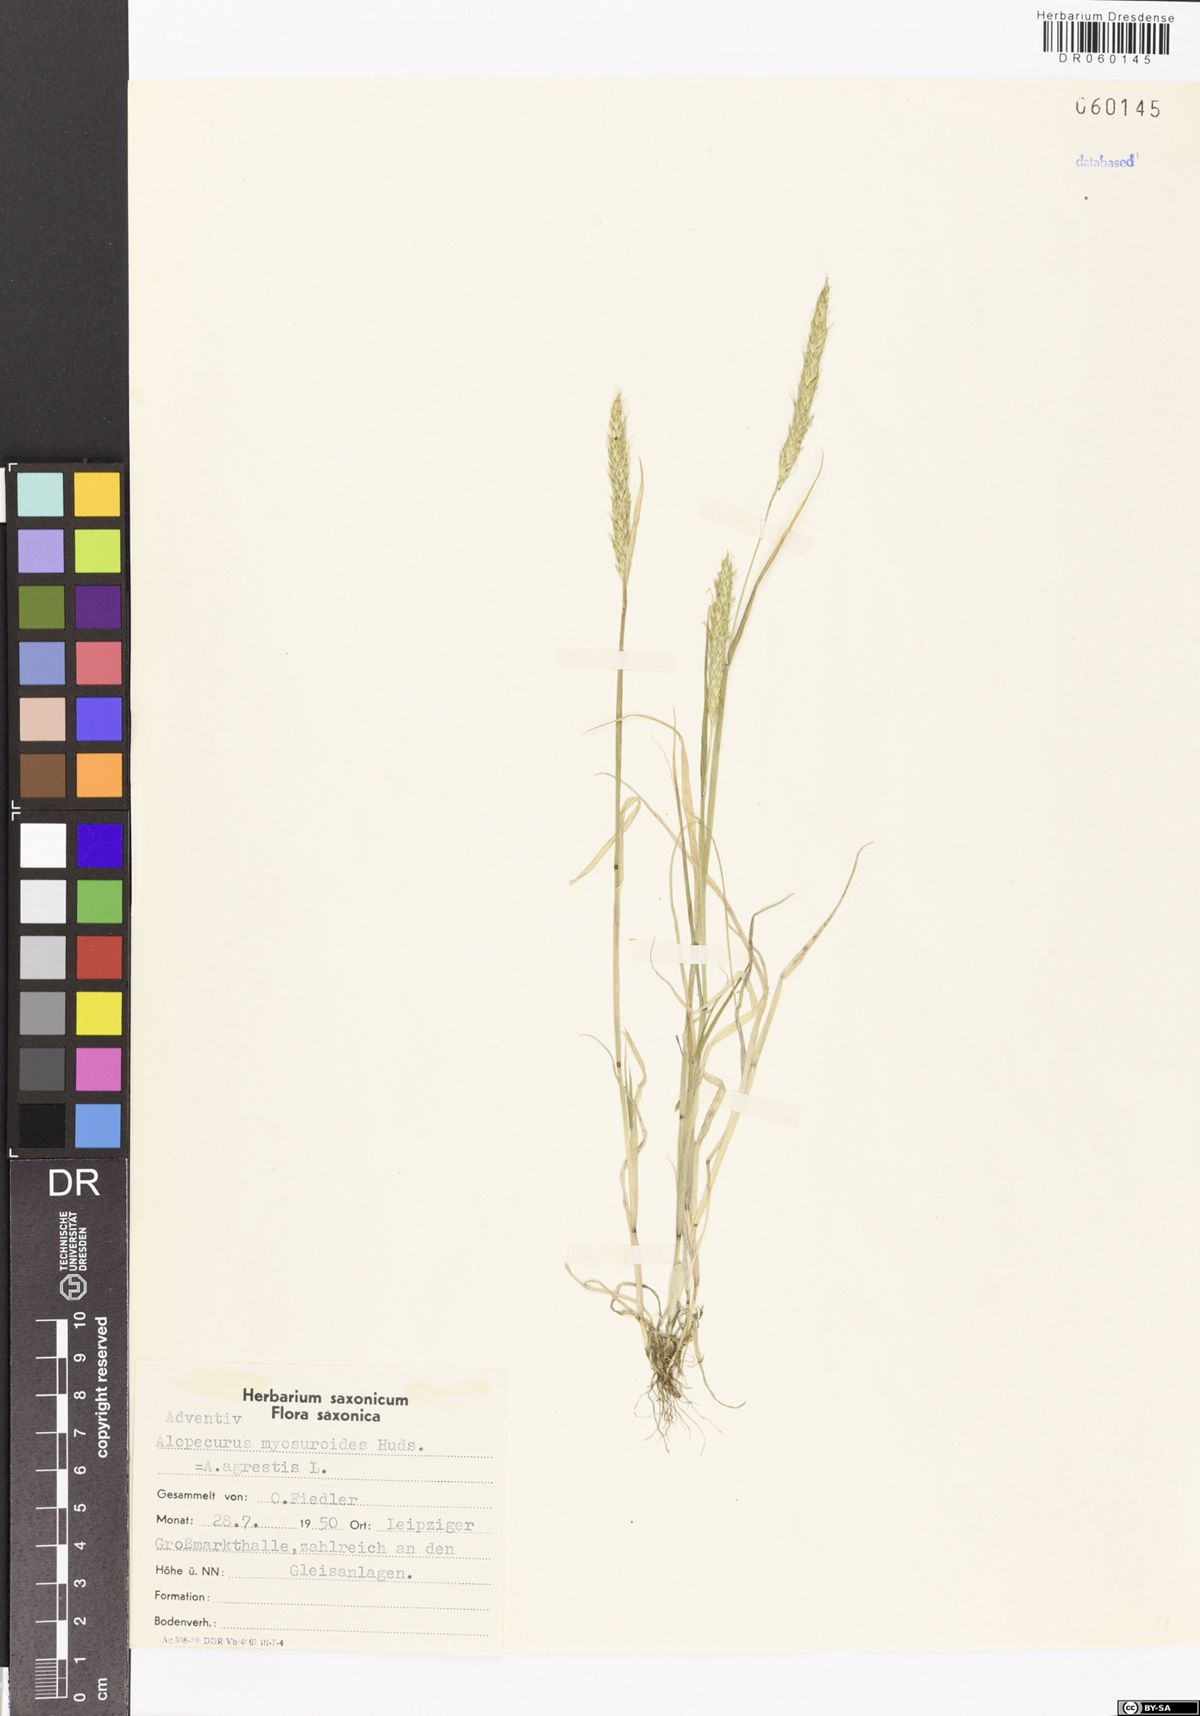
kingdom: Plantae
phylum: Tracheophyta
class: Liliopsida
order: Poales
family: Poaceae
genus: Alopecurus
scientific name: Alopecurus myosuroides
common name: Black-grass
